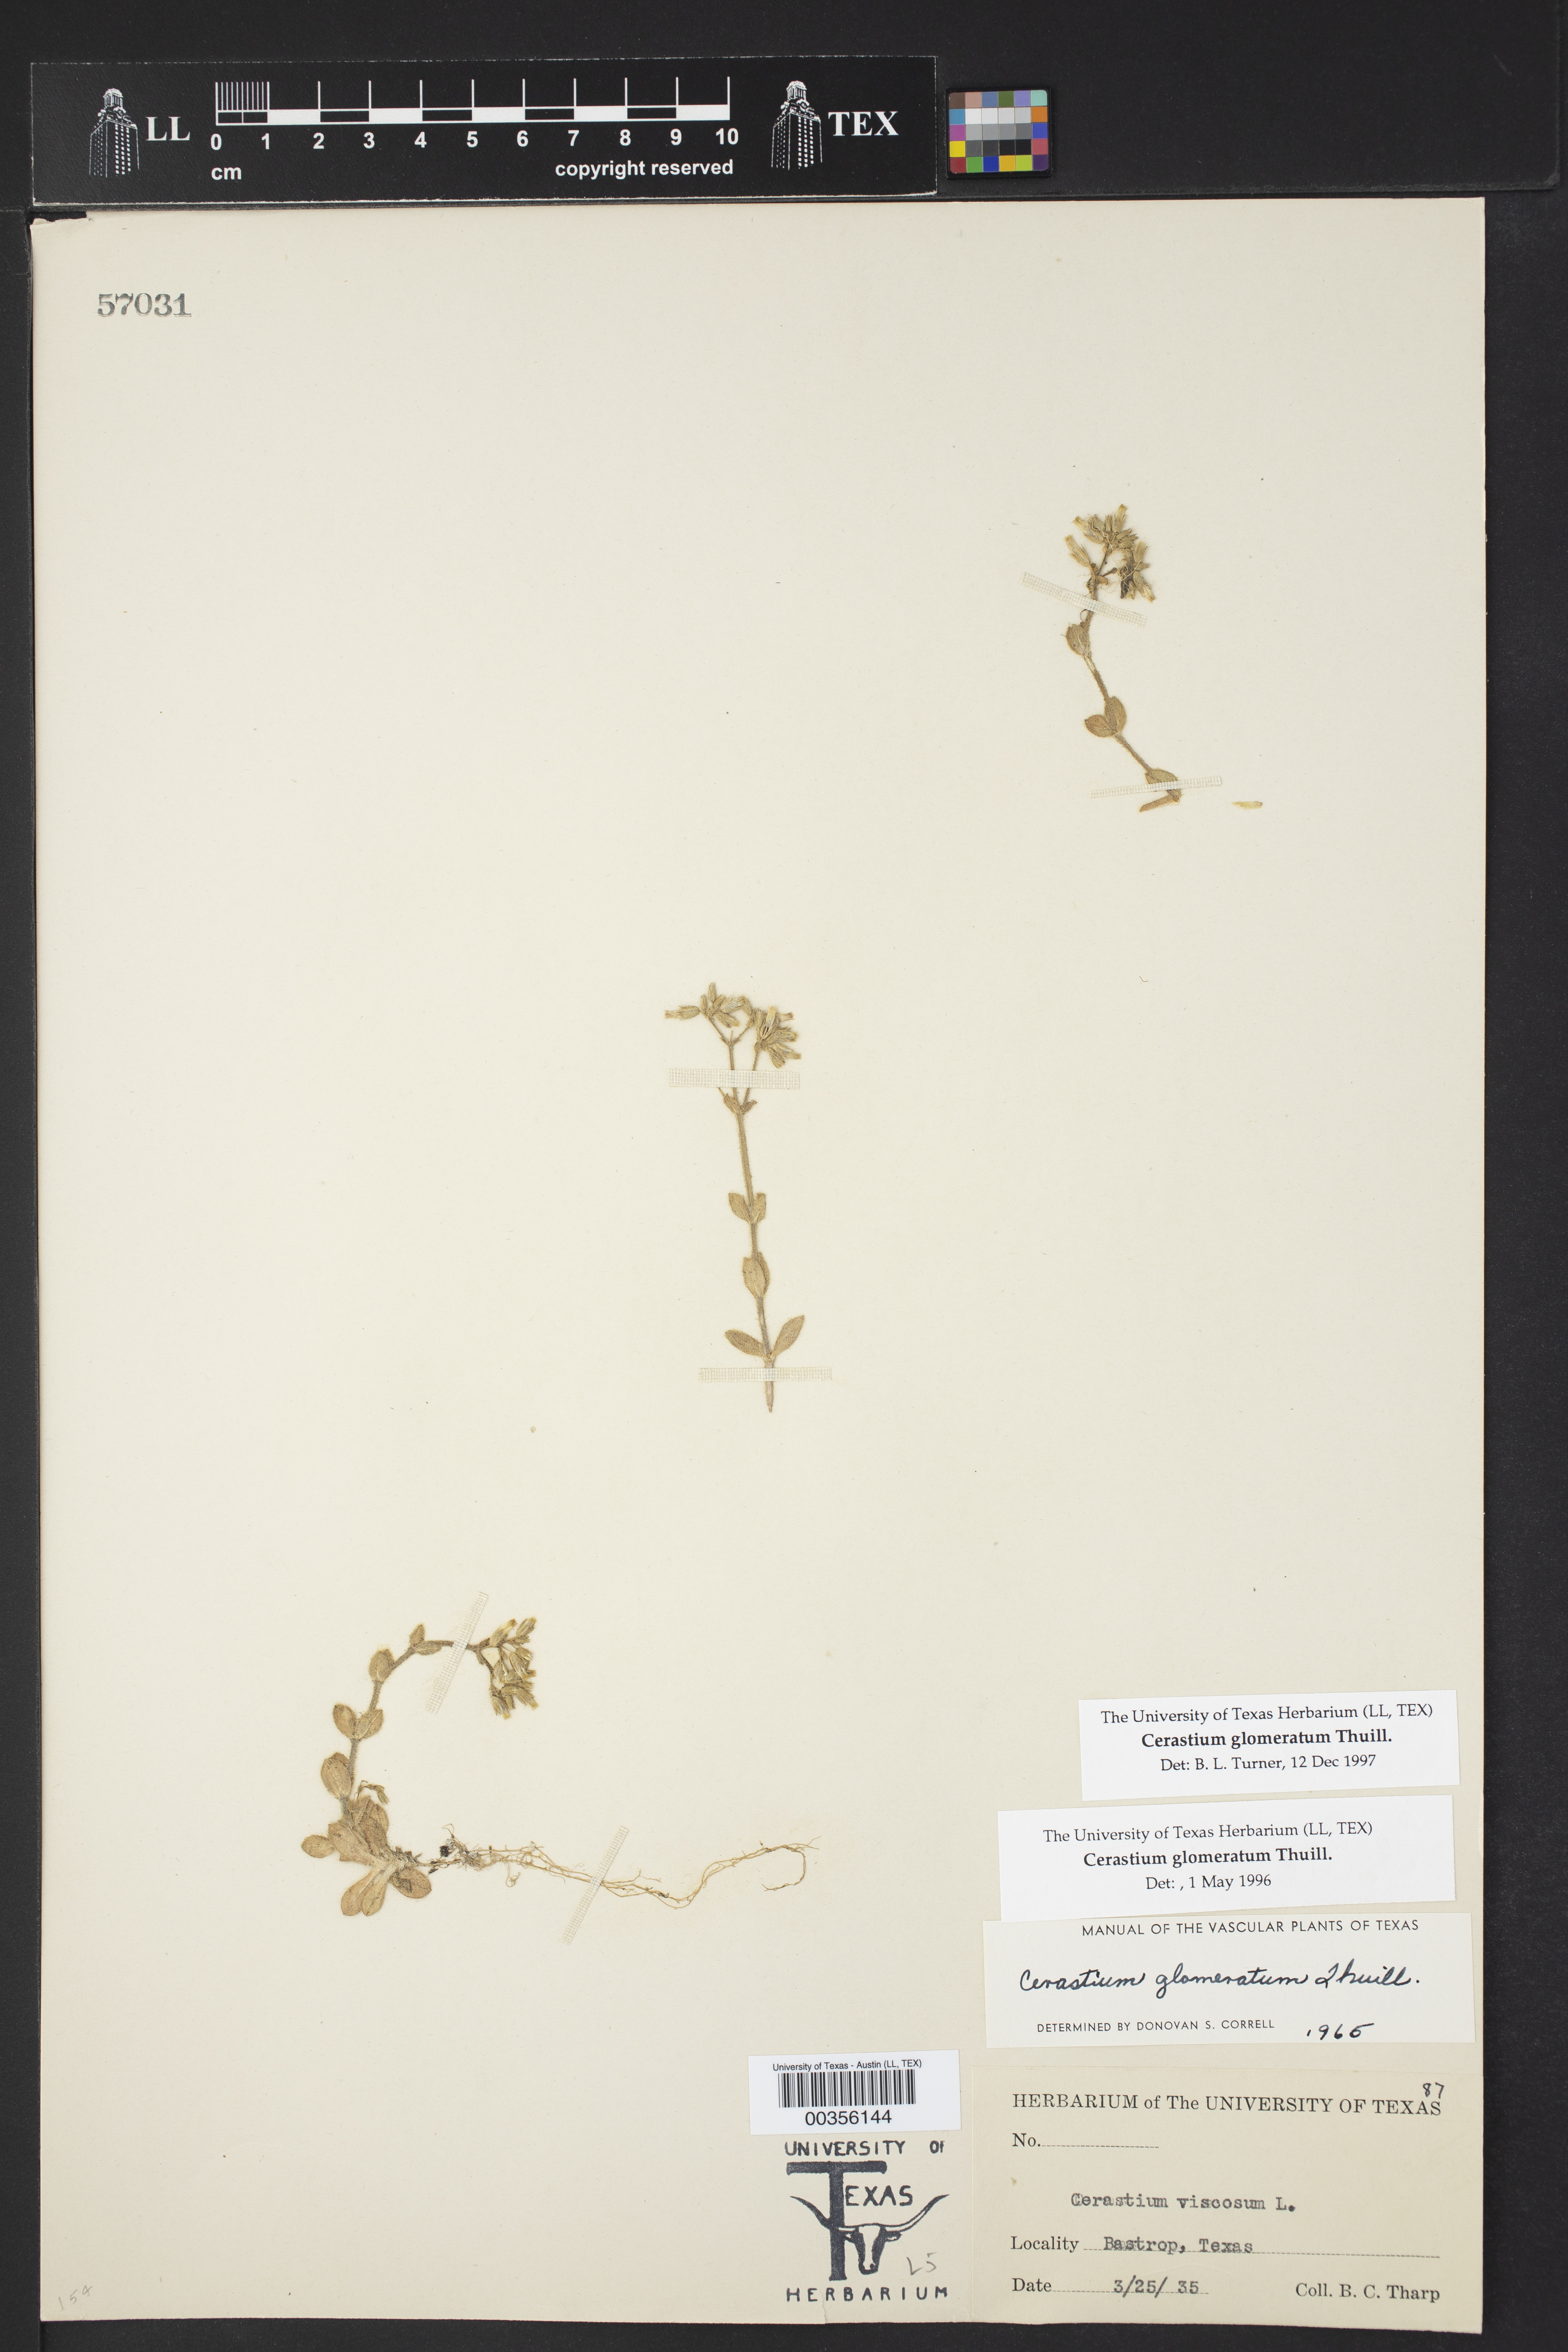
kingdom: Plantae
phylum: Tracheophyta
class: Magnoliopsida
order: Caryophyllales
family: Caryophyllaceae
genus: Cerastium
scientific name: Cerastium glomeratum
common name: Sticky chickweed
